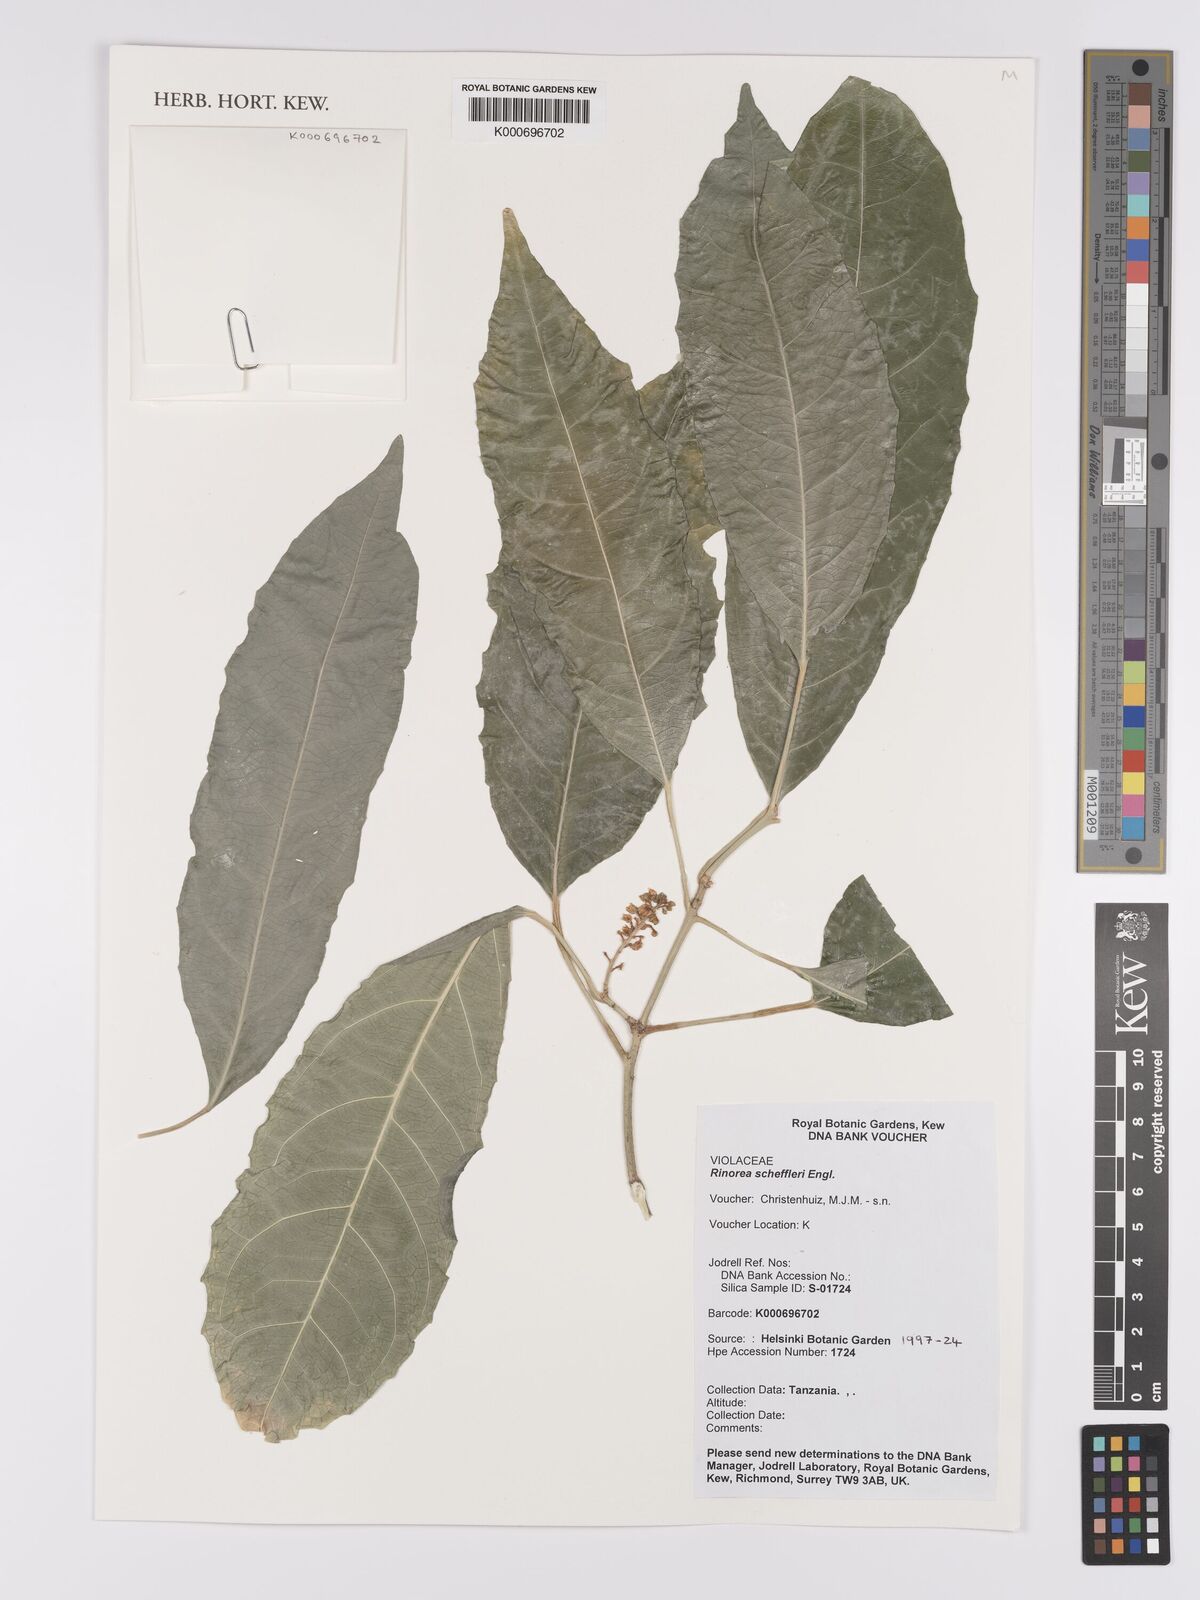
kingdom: Plantae
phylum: Tracheophyta
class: Magnoliopsida
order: Malpighiales
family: Violaceae
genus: Rinorea
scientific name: Rinorea scheffleri
